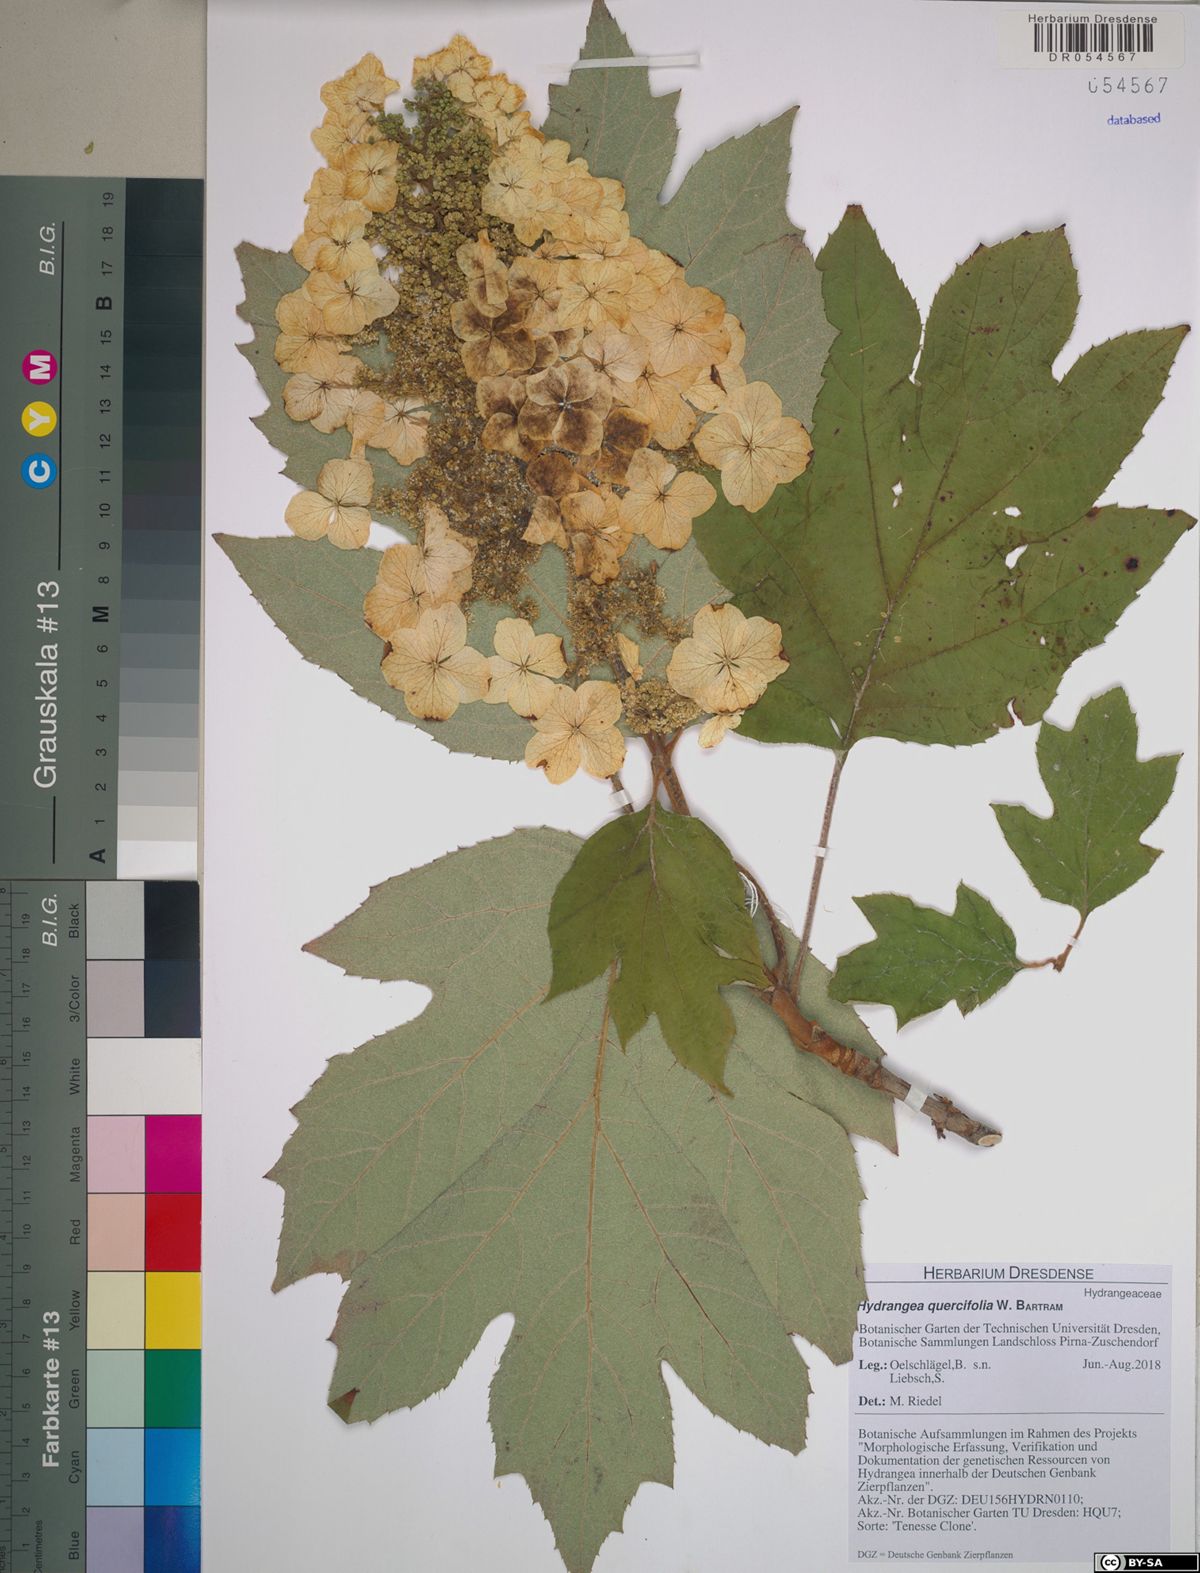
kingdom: Plantae
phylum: Tracheophyta
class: Magnoliopsida
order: Cornales
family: Hydrangeaceae
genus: Hydrangea
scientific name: Hydrangea quercifolia
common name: Oak-leaf hydrangea
